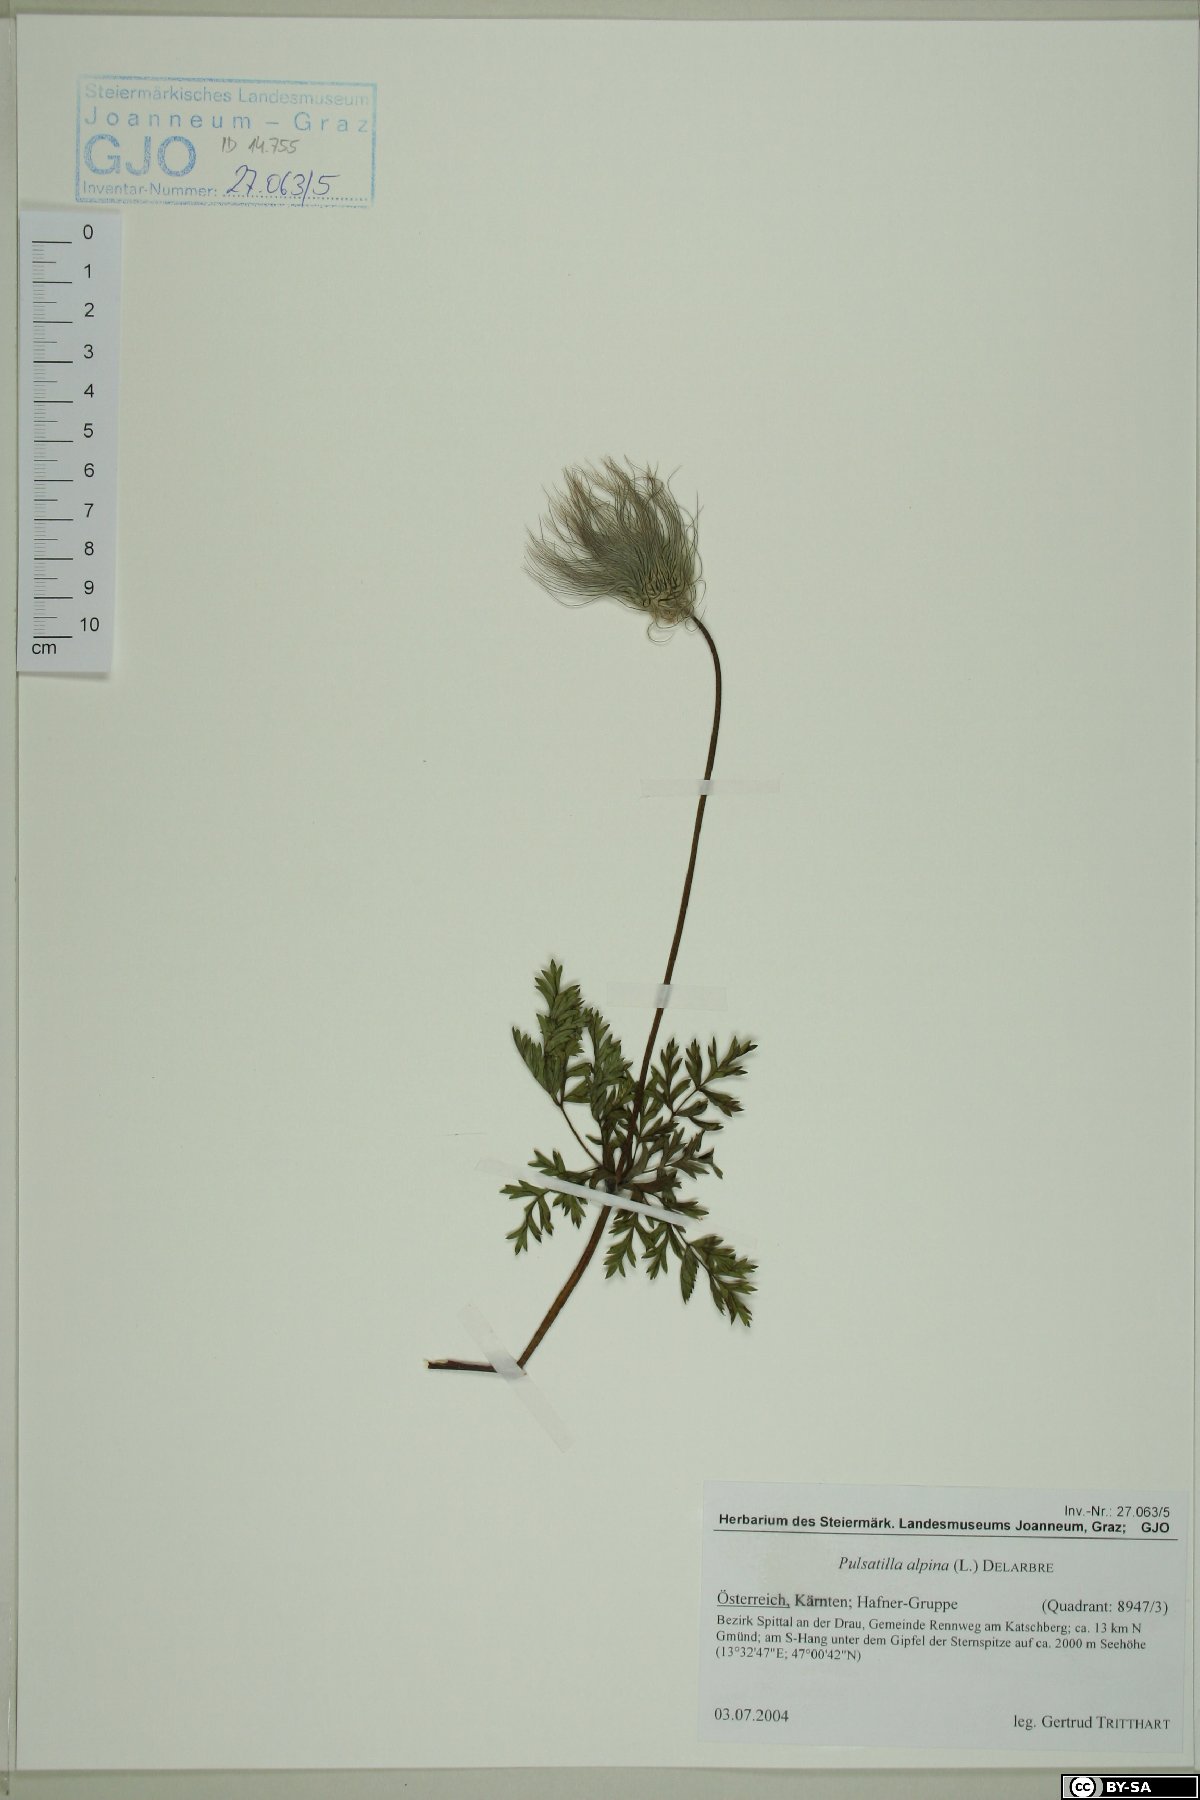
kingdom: Plantae
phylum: Tracheophyta
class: Magnoliopsida
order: Ranunculales
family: Ranunculaceae
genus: Pulsatilla
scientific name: Pulsatilla alpina
